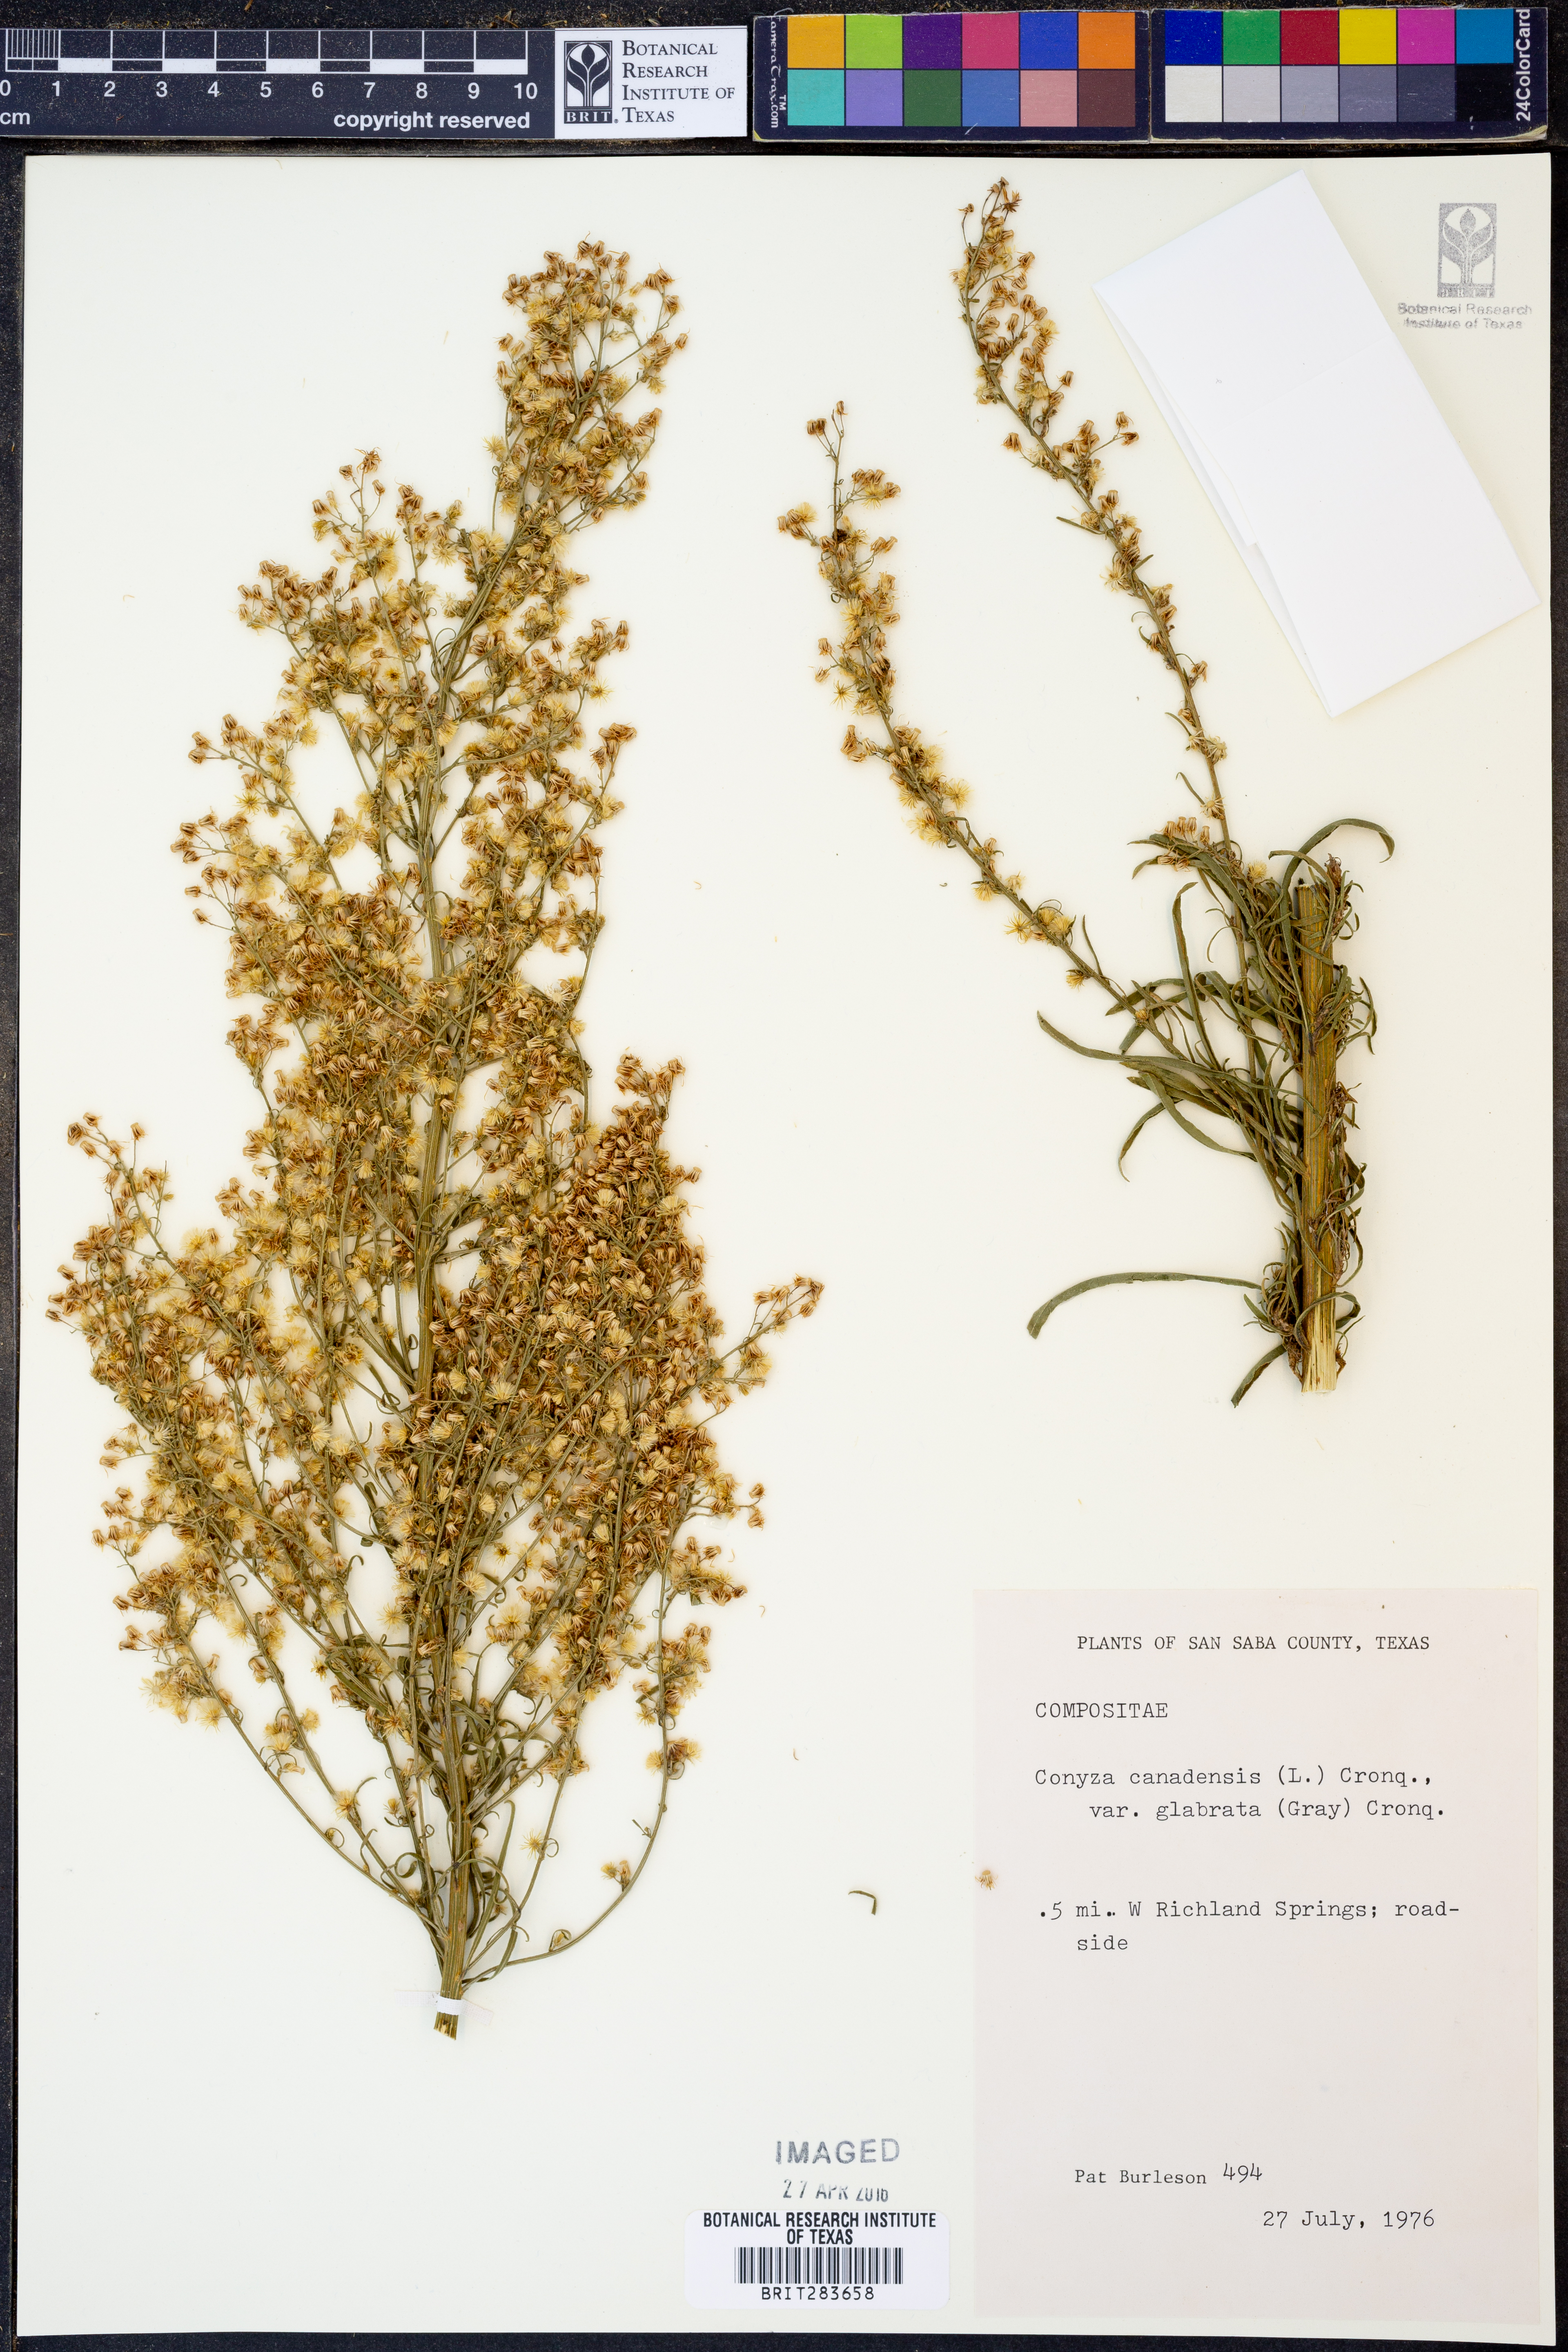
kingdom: Plantae
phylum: Tracheophyta
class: Magnoliopsida
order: Asterales
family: Asteraceae
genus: Erigeron
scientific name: Erigeron canadensis
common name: Canadian fleabane
